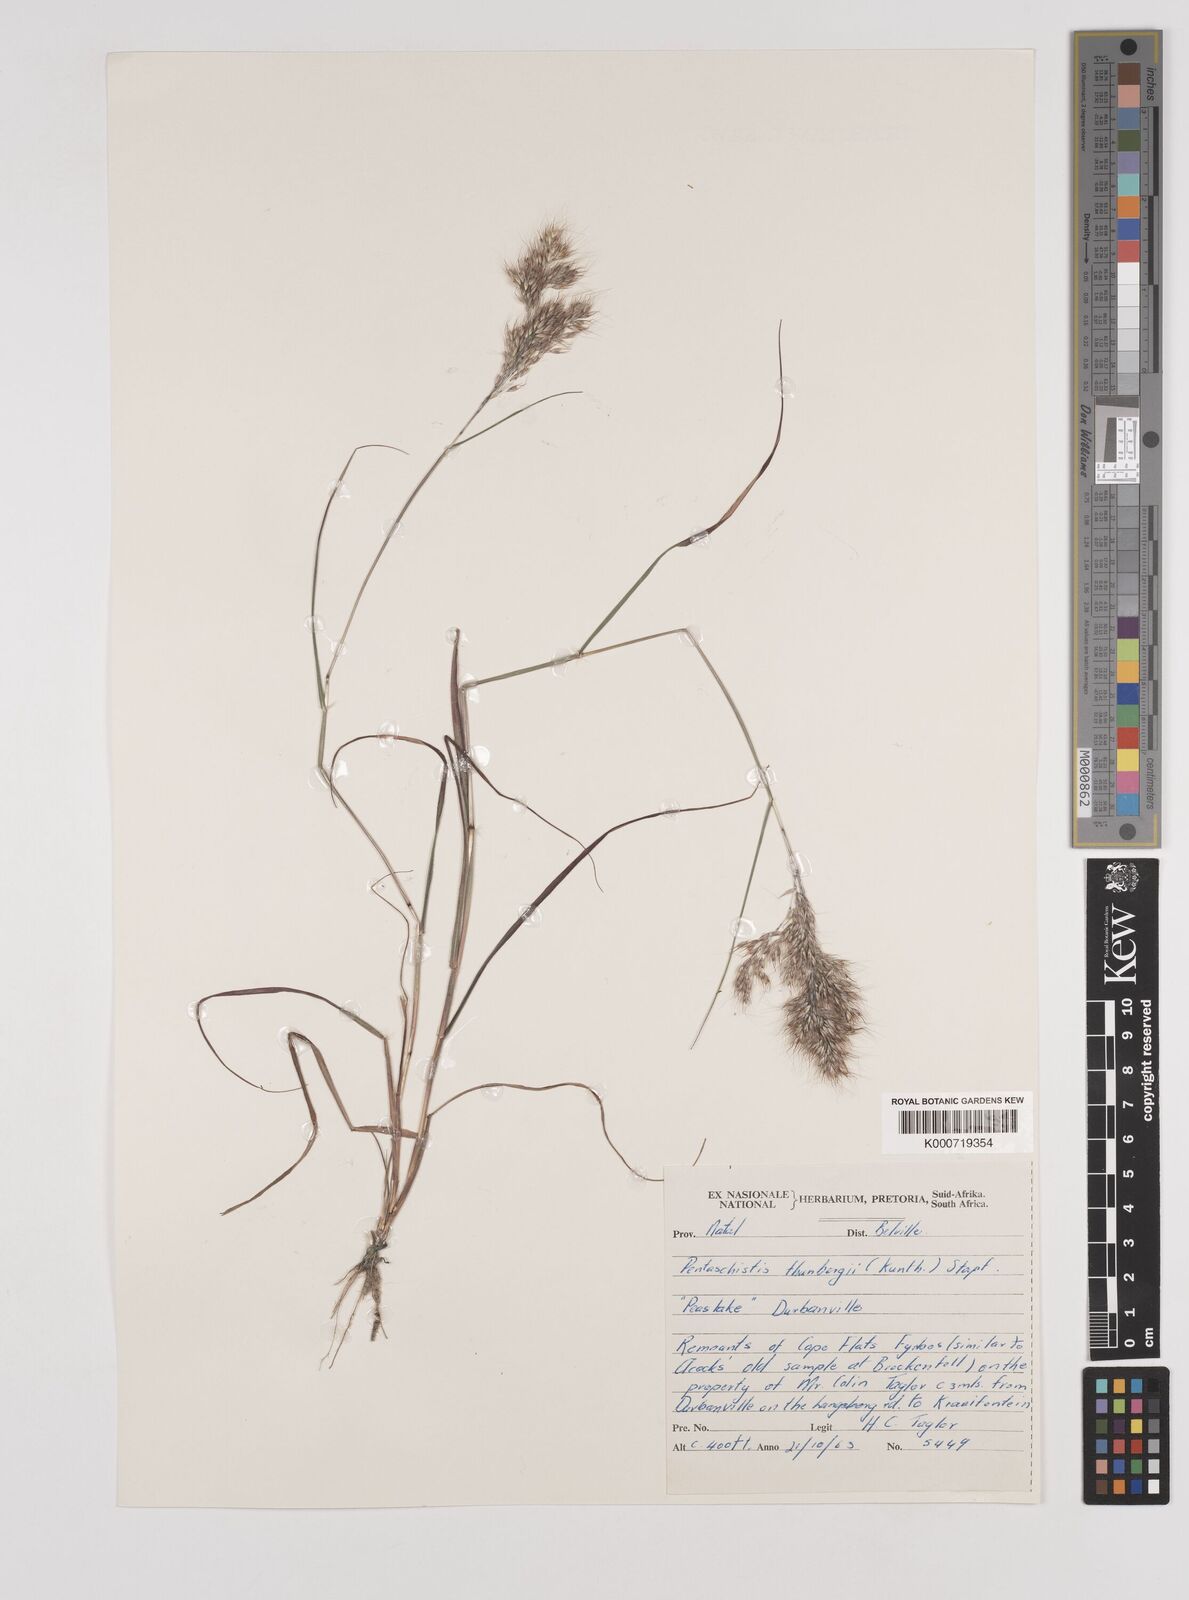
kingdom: Plantae
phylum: Tracheophyta
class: Liliopsida
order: Poales
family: Poaceae
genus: Pentameris
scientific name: Pentameris triseta
